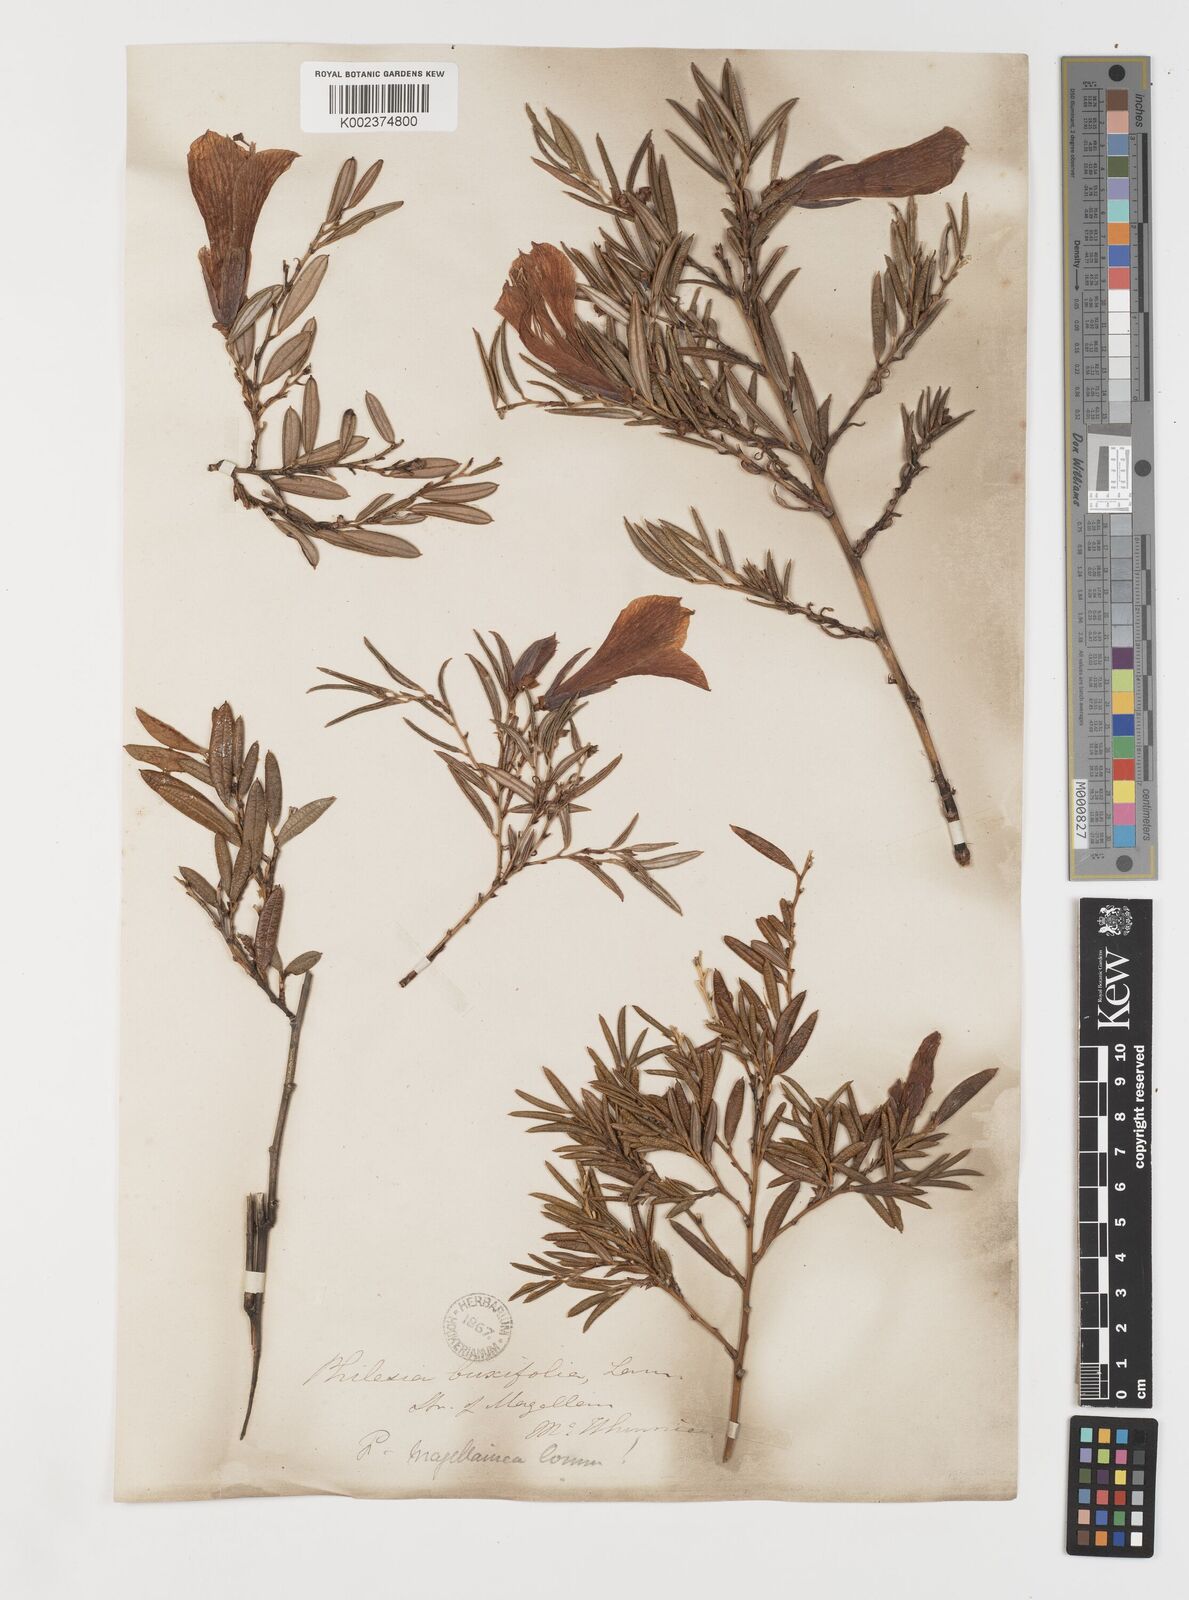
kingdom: Plantae
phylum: Tracheophyta
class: Liliopsida
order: Liliales
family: Philesiaceae
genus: Philesia
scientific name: Philesia magellanica
